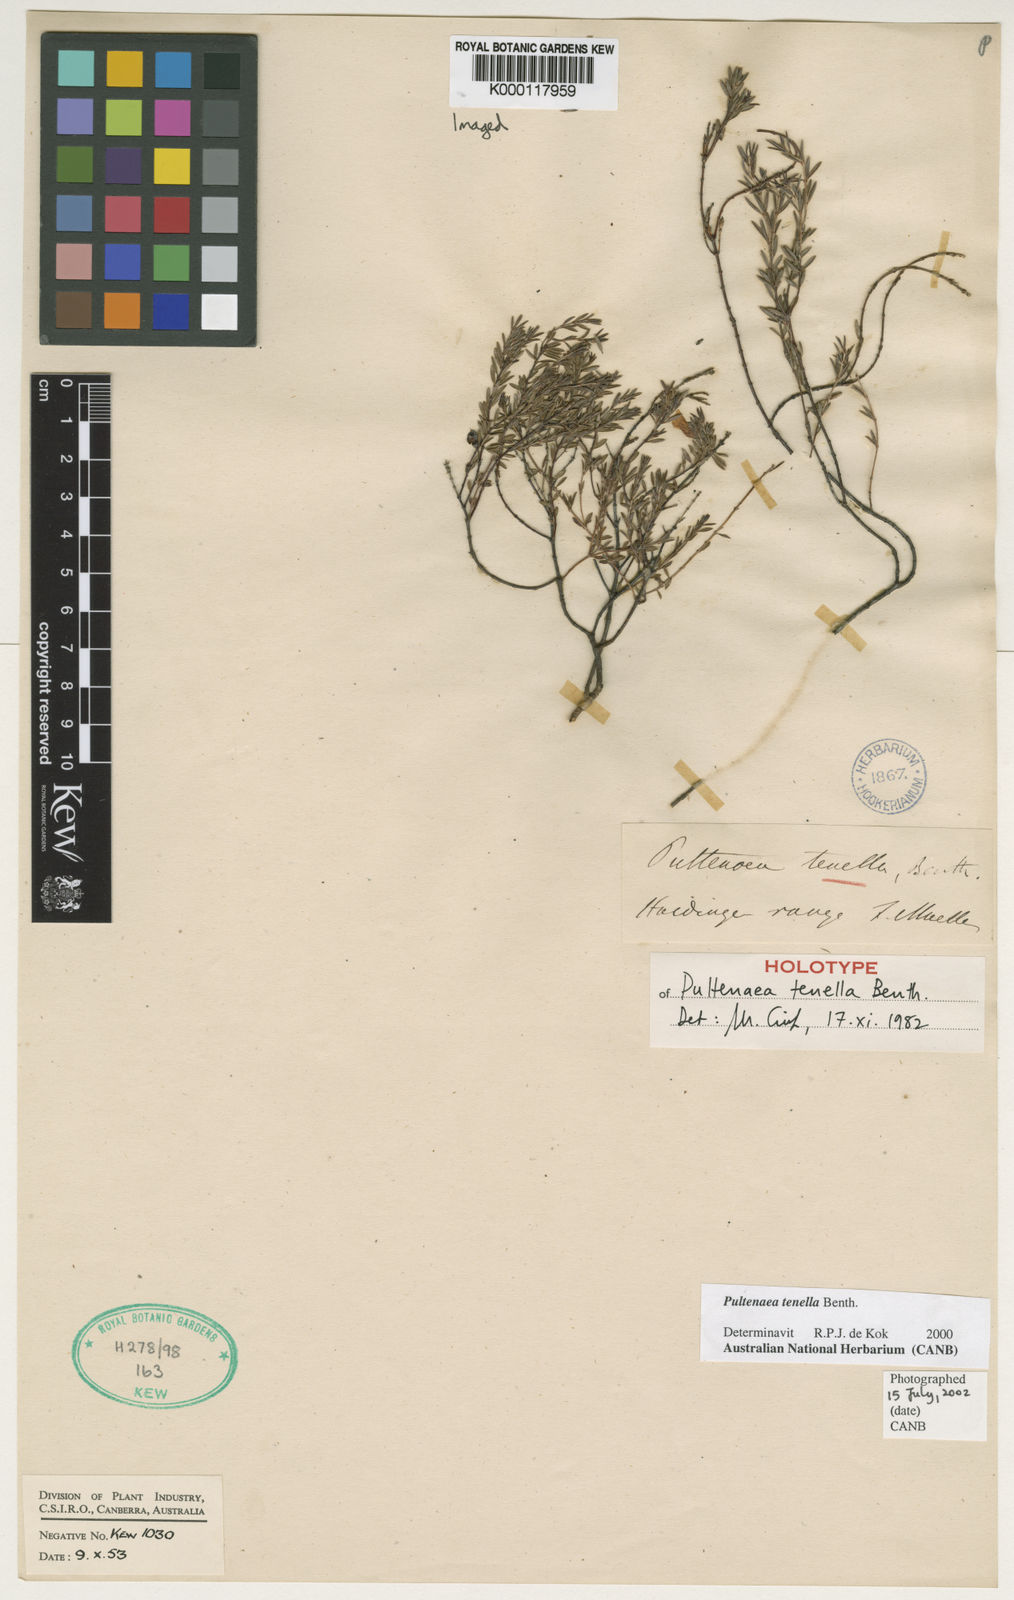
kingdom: Plantae
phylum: Tracheophyta
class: Magnoliopsida
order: Fabales
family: Fabaceae
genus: Pultenaea
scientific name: Pultenaea tenella
